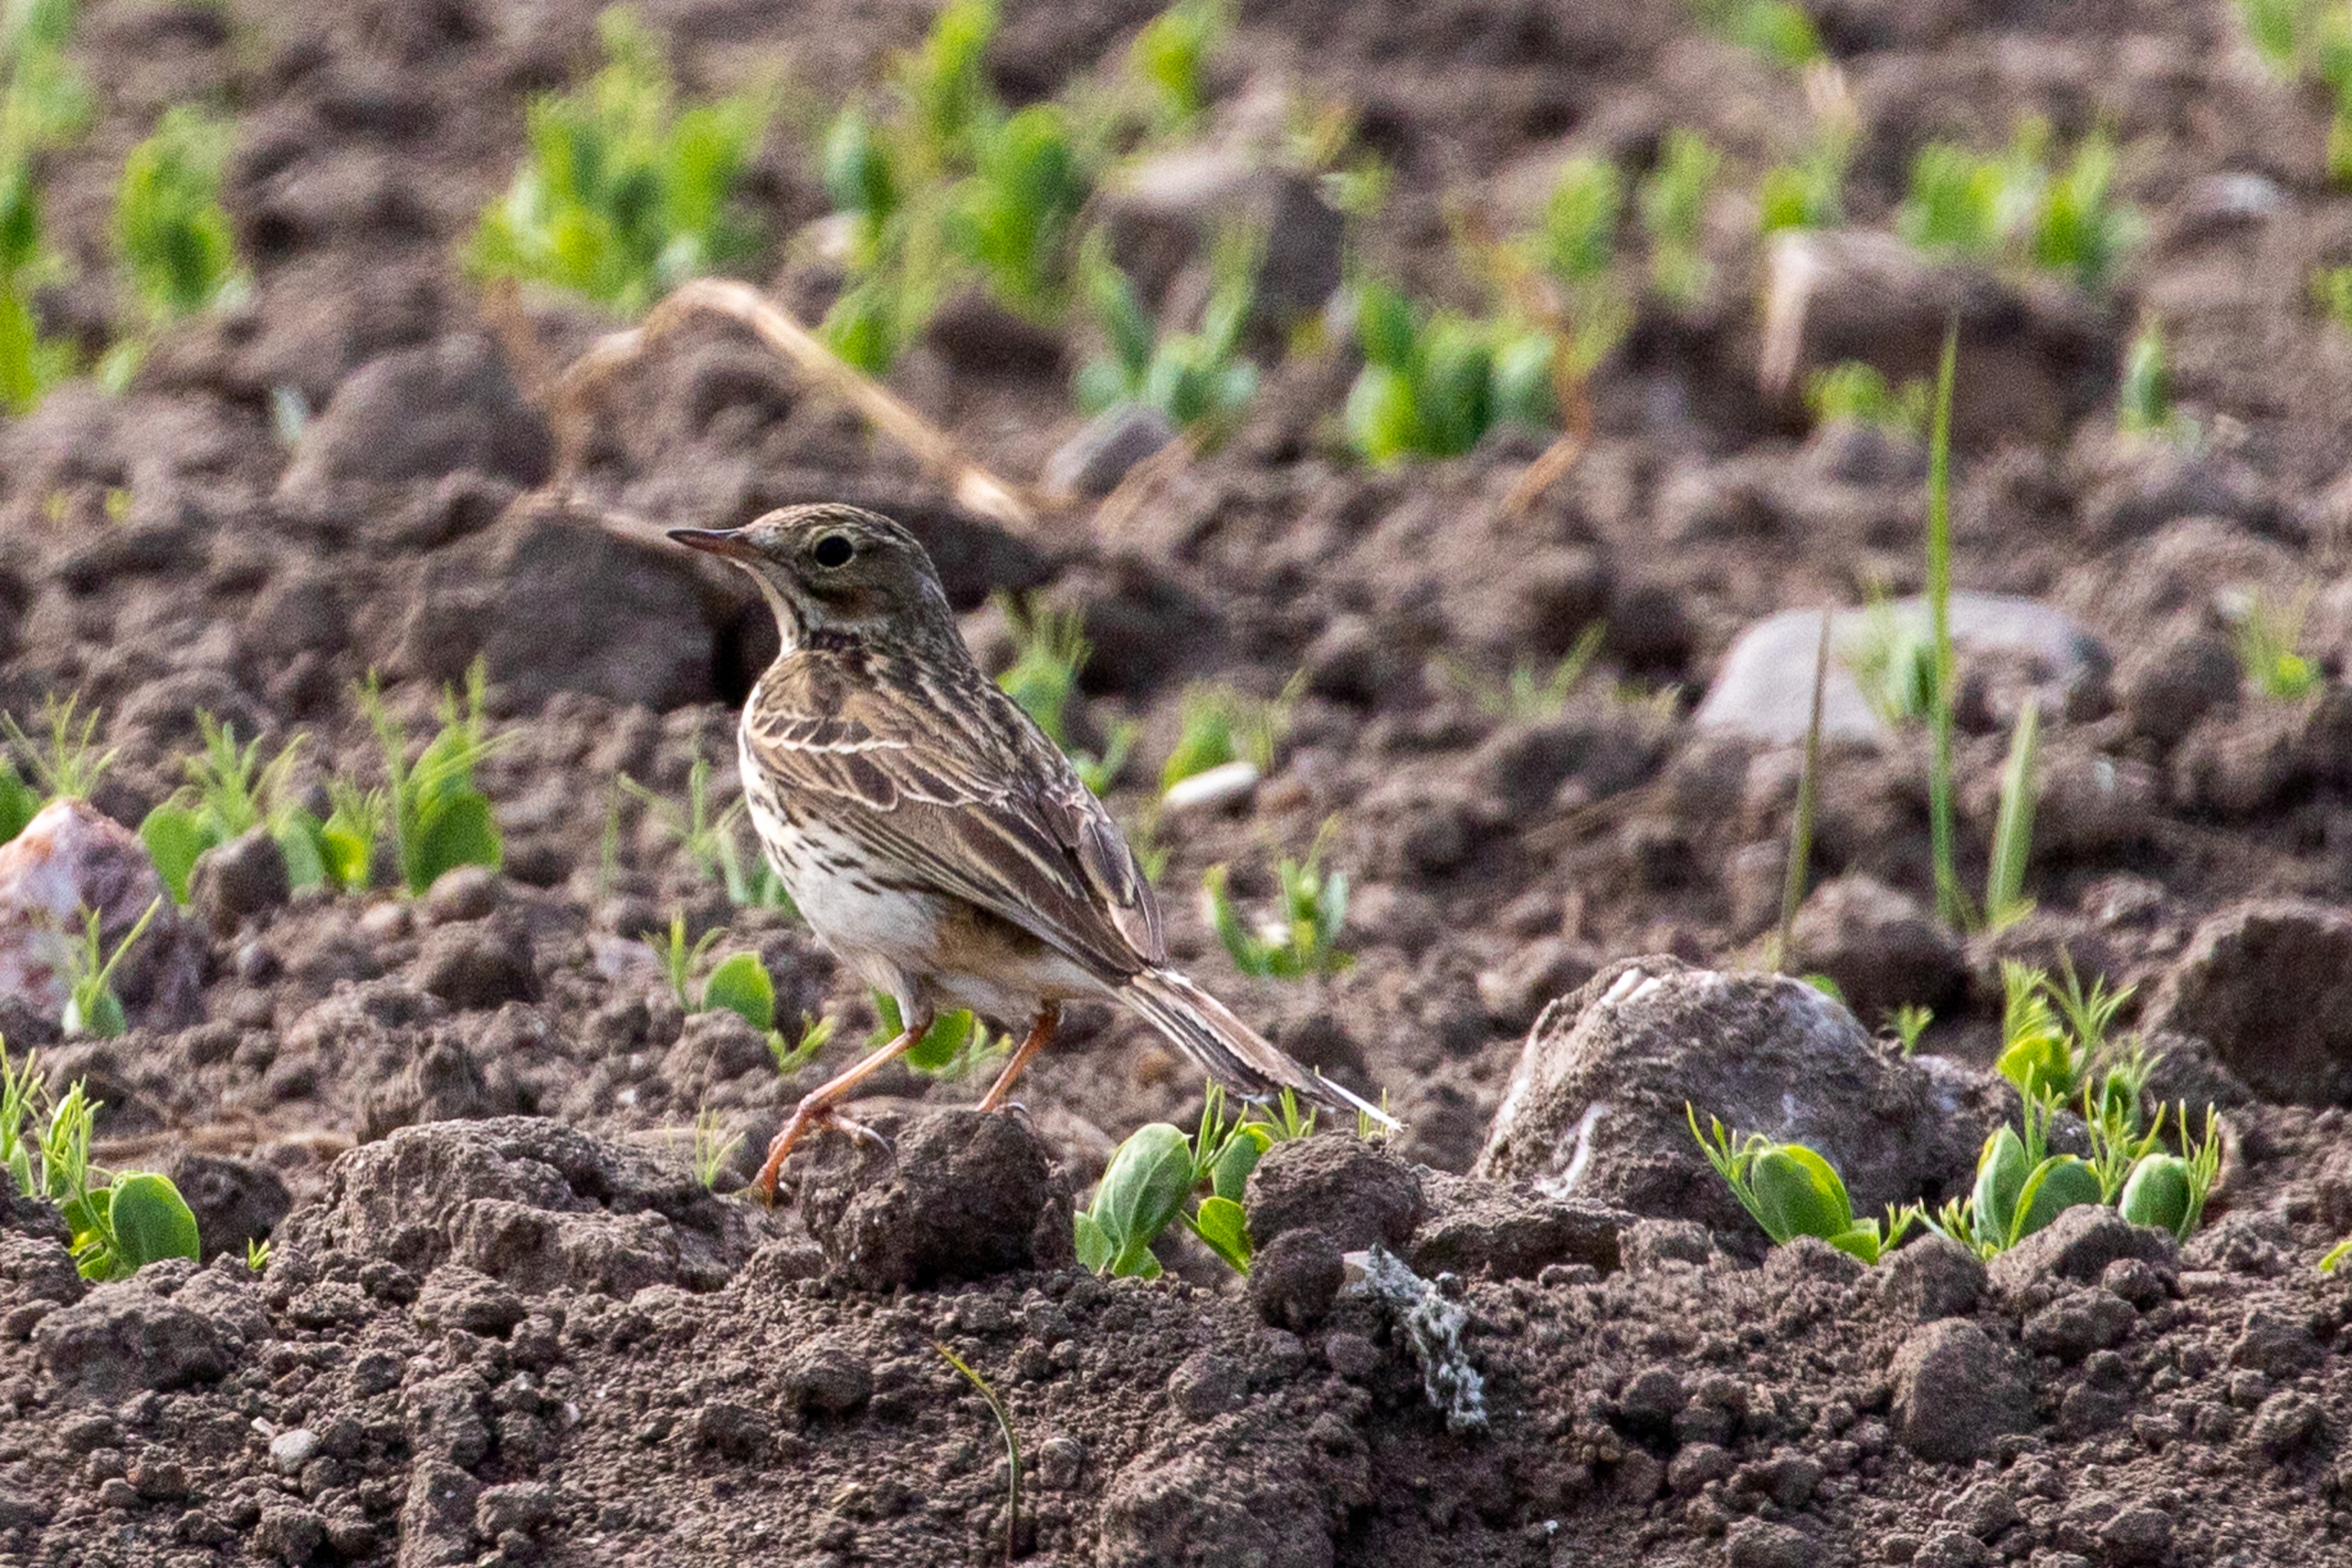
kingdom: Animalia
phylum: Chordata
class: Aves
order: Passeriformes
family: Motacillidae
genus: Anthus
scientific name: Anthus pratensis
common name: Engpiber
